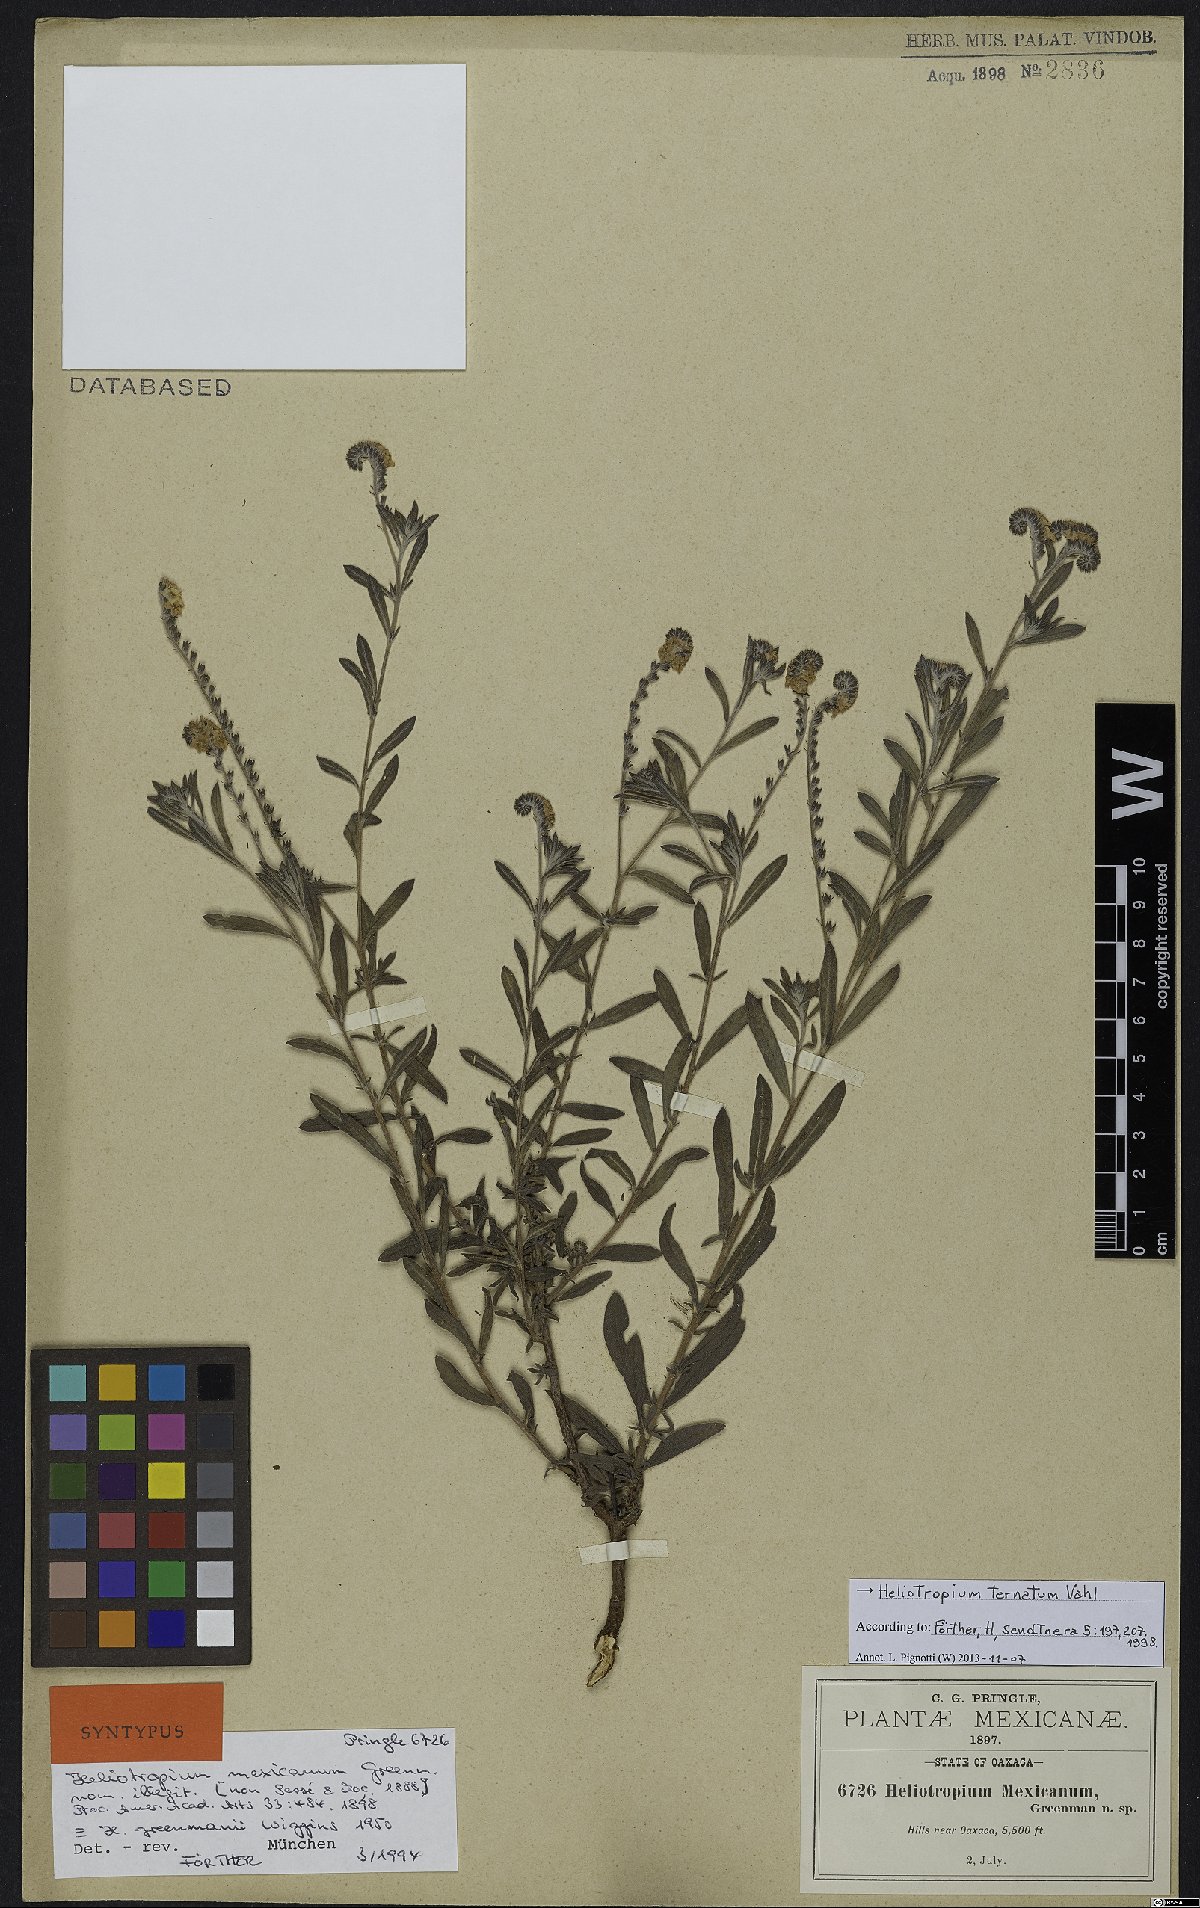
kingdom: Plantae
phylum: Tracheophyta
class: Magnoliopsida
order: Boraginales
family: Heliotropiaceae
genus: Euploca
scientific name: Euploca humilis
